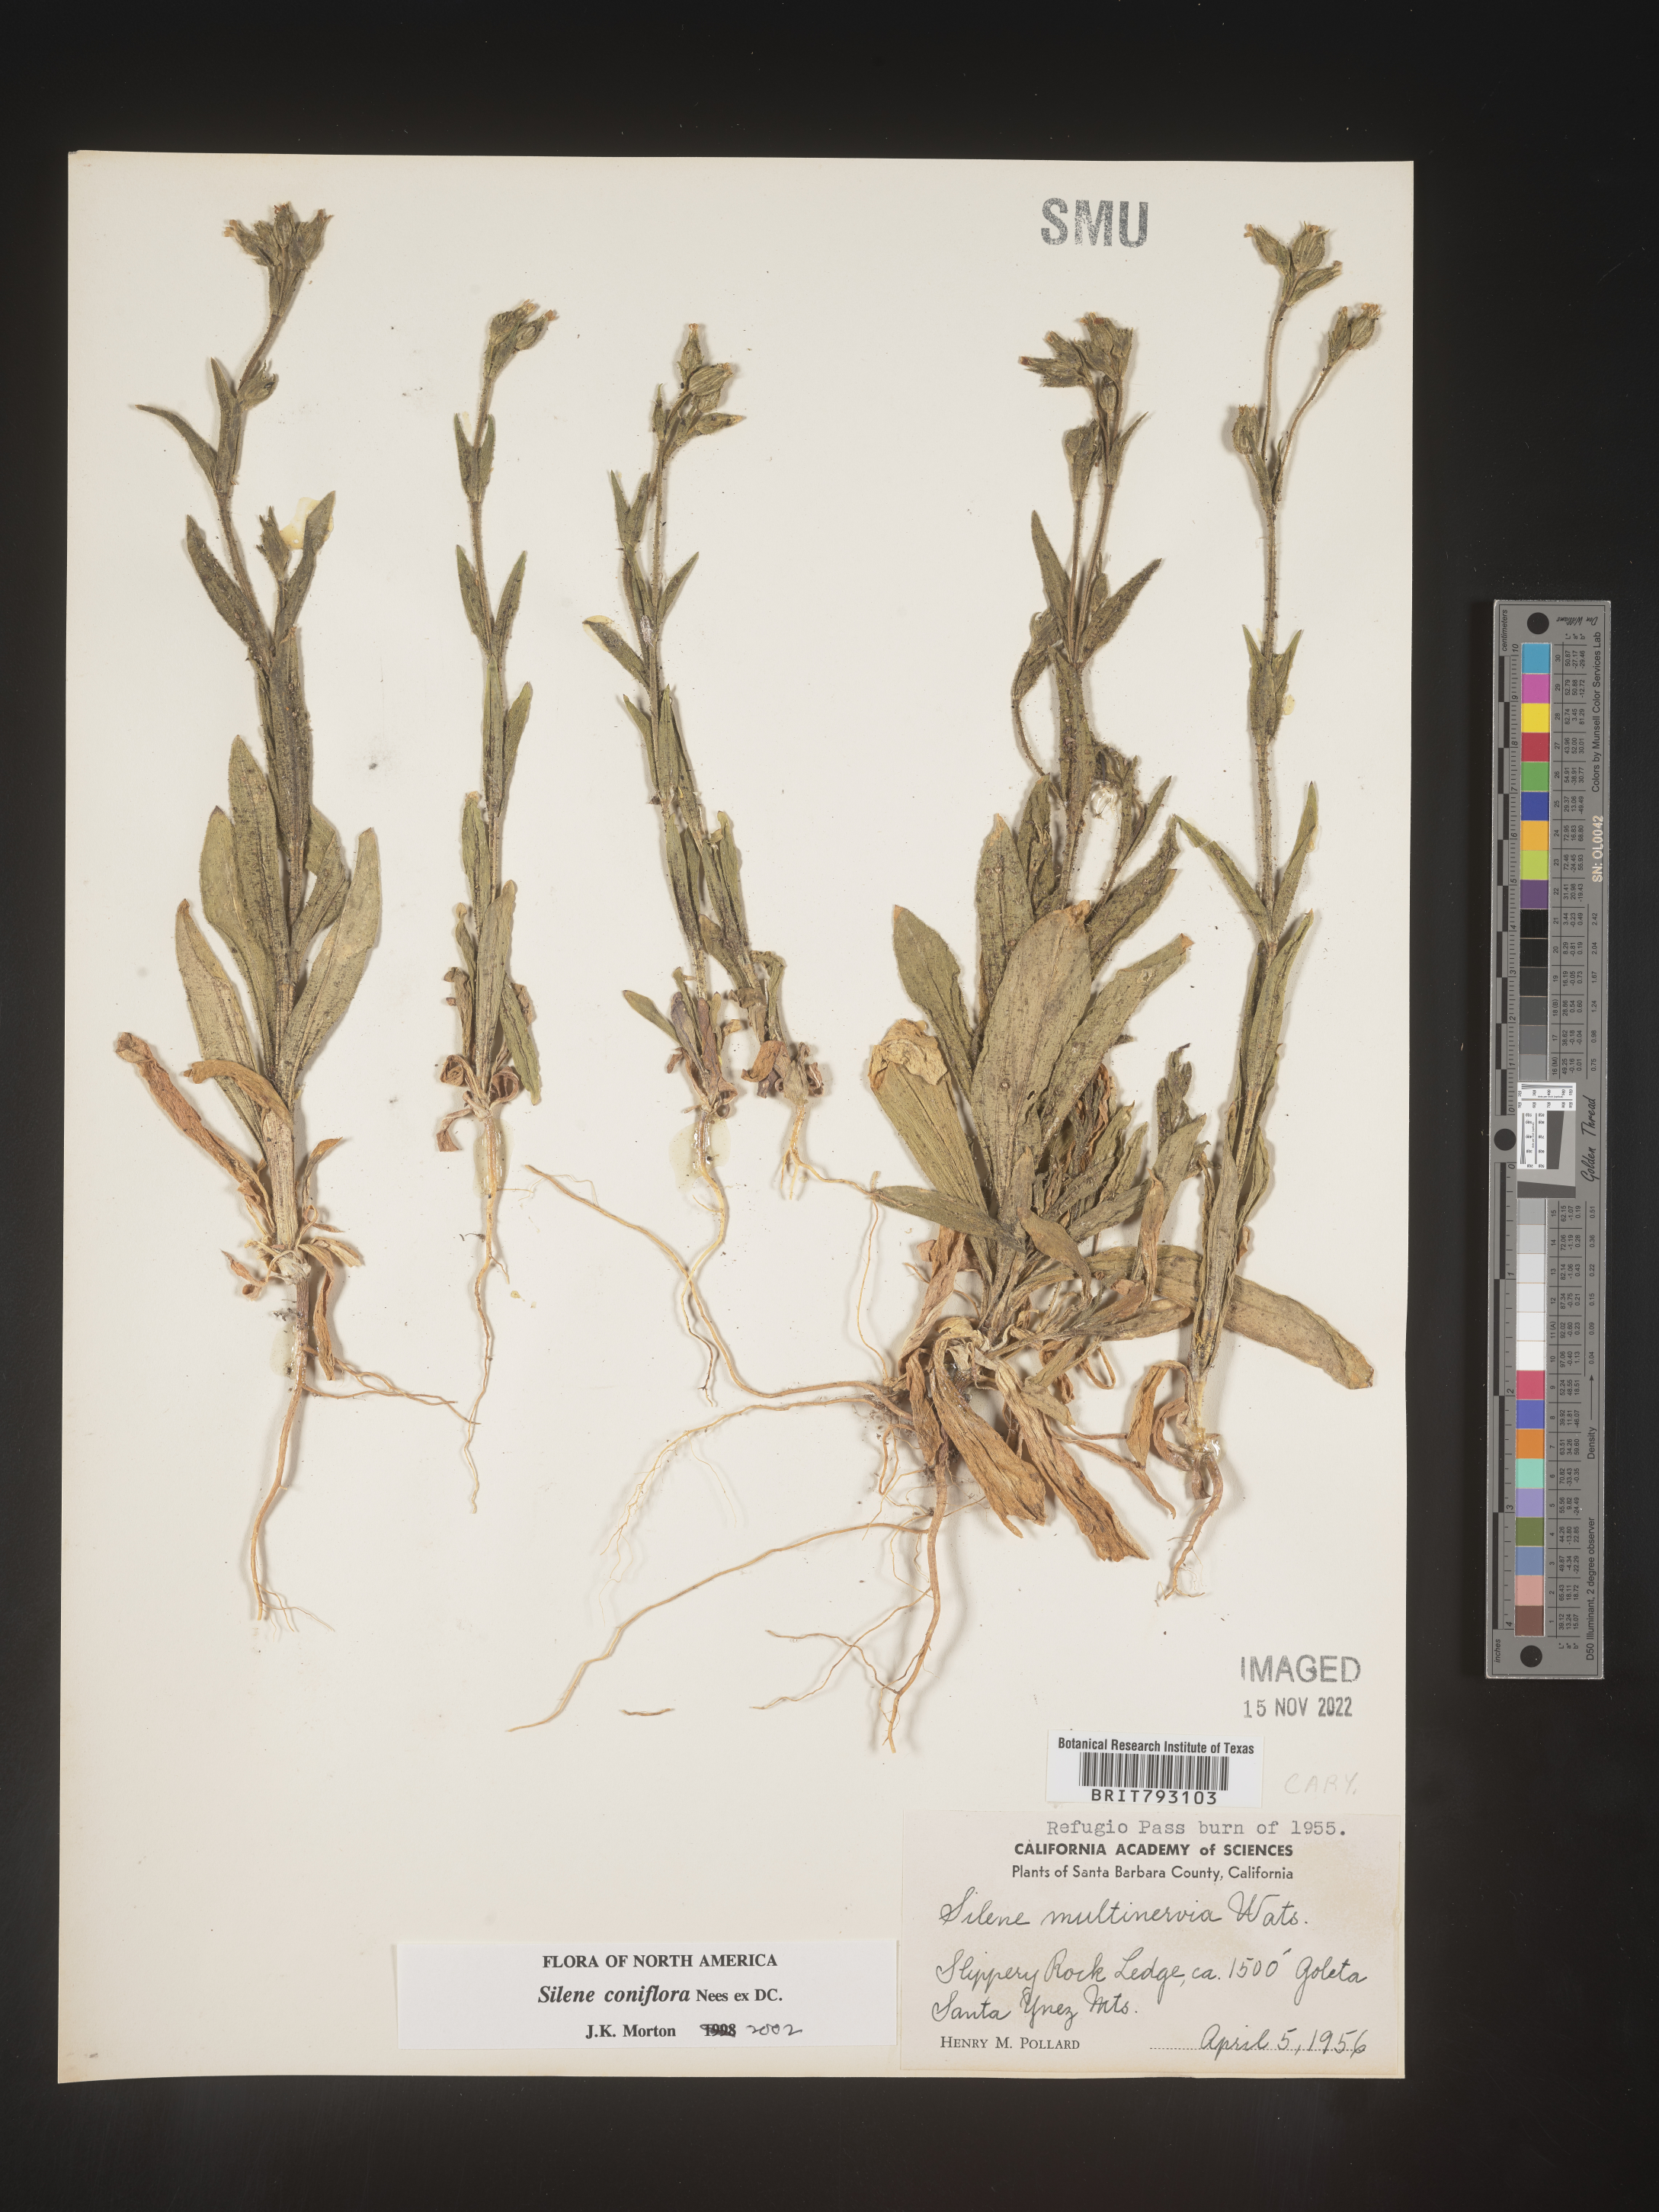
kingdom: Plantae
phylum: Tracheophyta
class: Magnoliopsida
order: Caryophyllales
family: Caryophyllaceae
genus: Silene
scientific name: Silene coniflora
